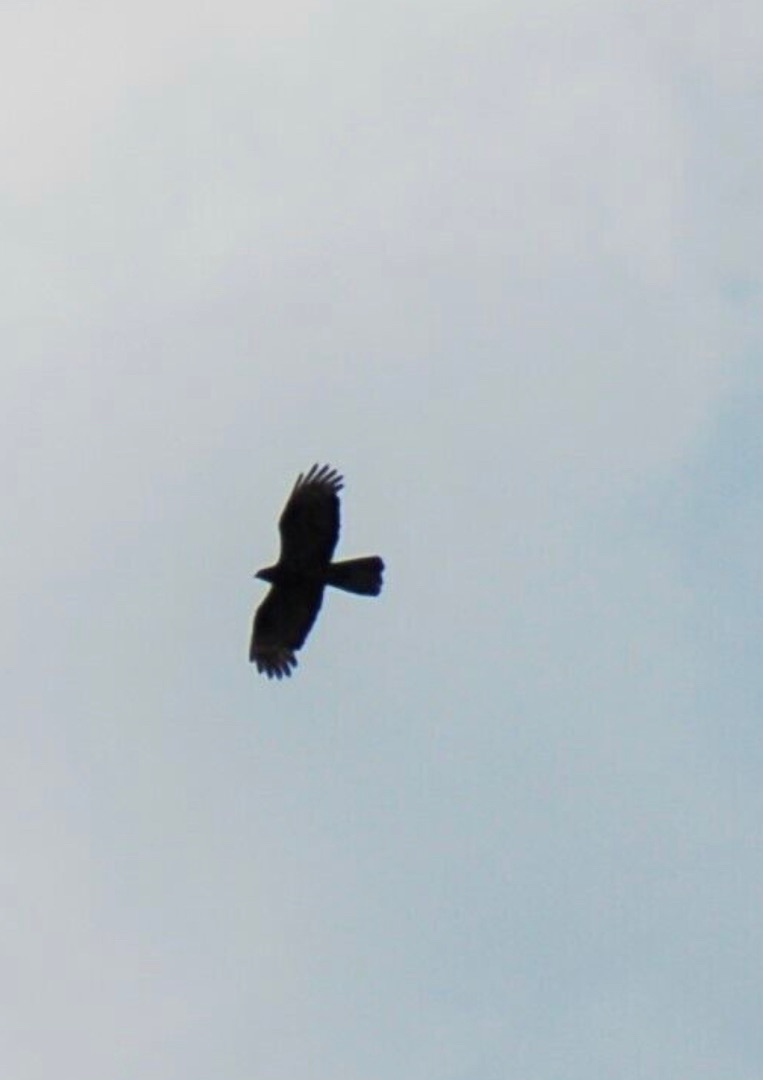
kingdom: Animalia
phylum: Chordata
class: Aves
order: Accipitriformes
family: Accipitridae
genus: Pernis
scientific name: Pernis apivorus
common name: Hvepsevåge
